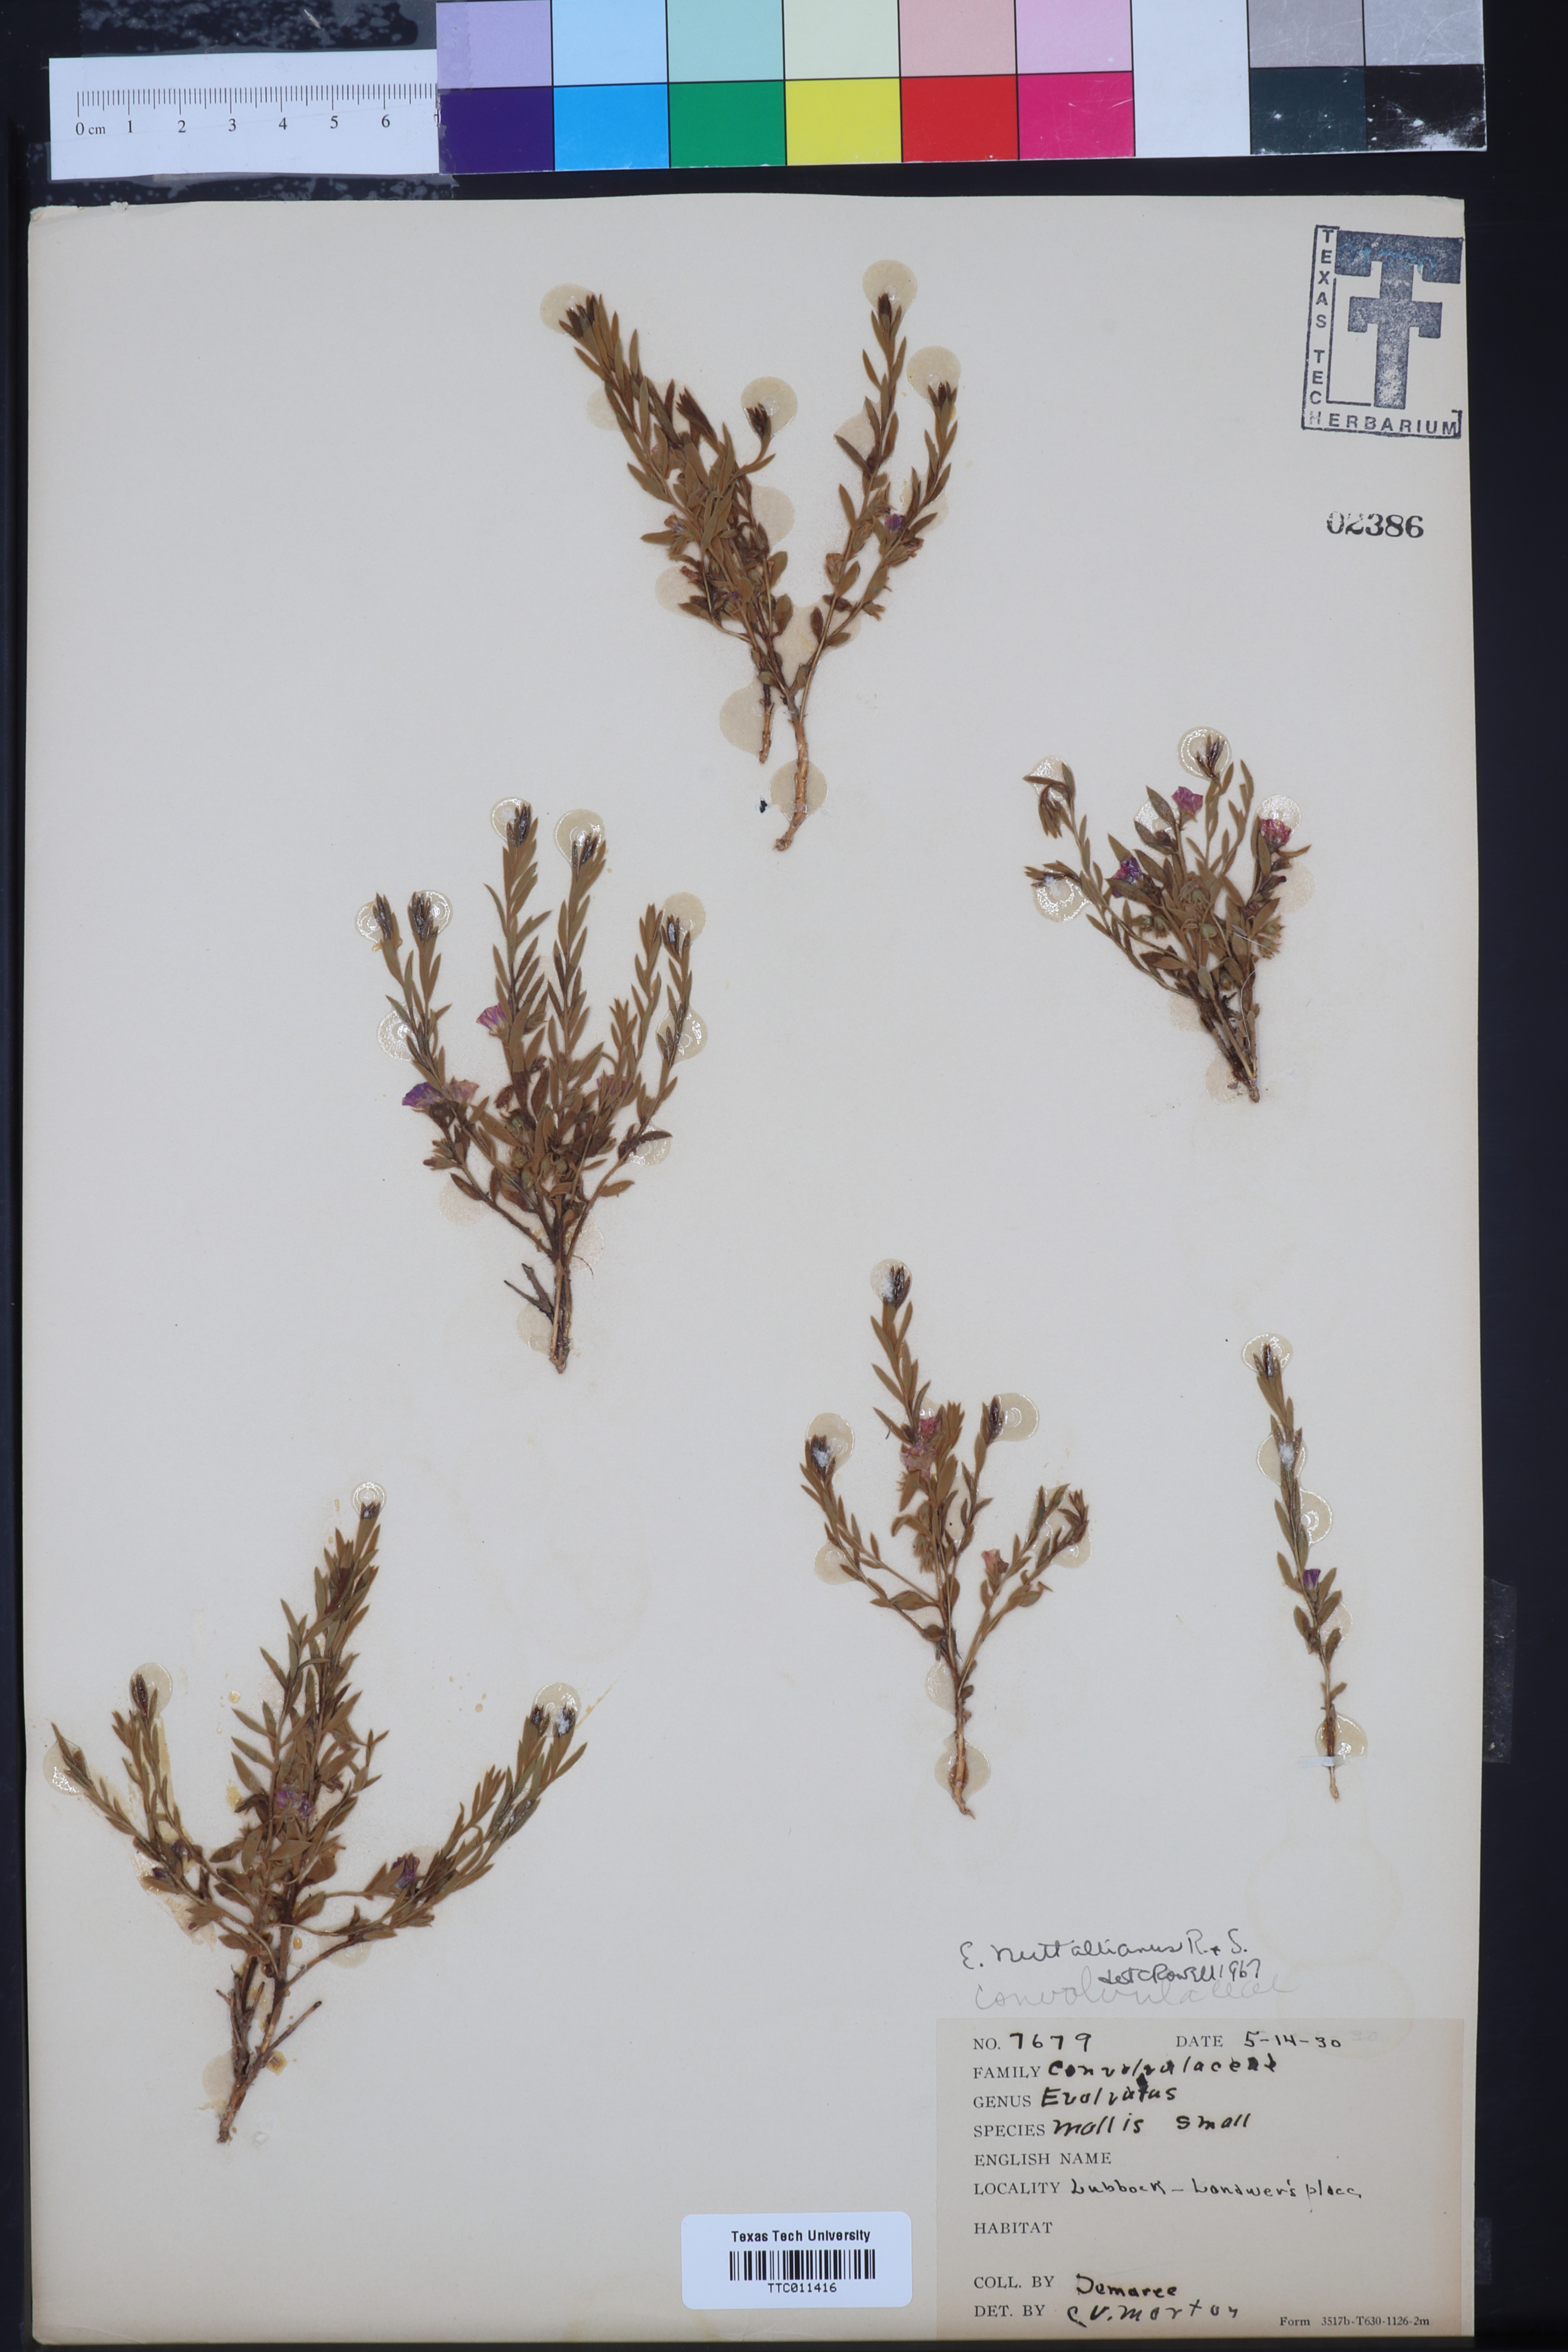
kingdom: Plantae
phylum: Tracheophyta
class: Magnoliopsida
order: Solanales
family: Convolvulaceae
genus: Evolvulus
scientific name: Evolvulus nuttallianus
